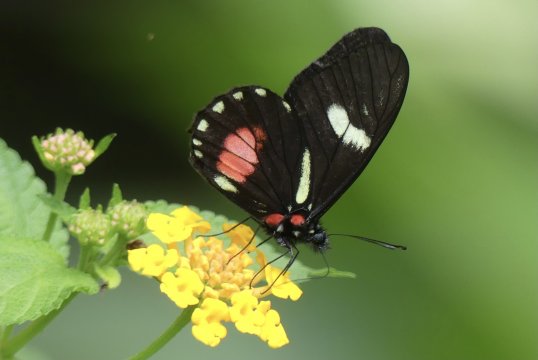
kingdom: Animalia
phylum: Arthropoda
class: Insecta
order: Lepidoptera
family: Pieridae
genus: Archonias
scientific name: Archonias brassolis
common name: Cattleheart White
